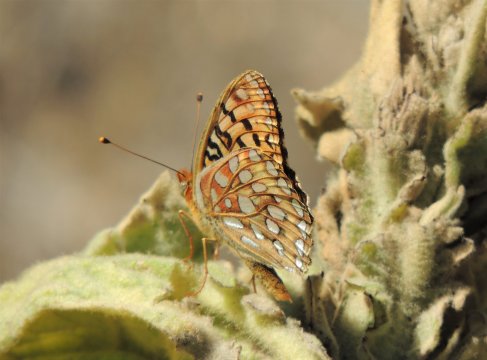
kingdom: Animalia
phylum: Arthropoda
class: Insecta
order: Lepidoptera
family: Nymphalidae
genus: Speyeria
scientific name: Speyeria coronis
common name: Coronis Fritillary
